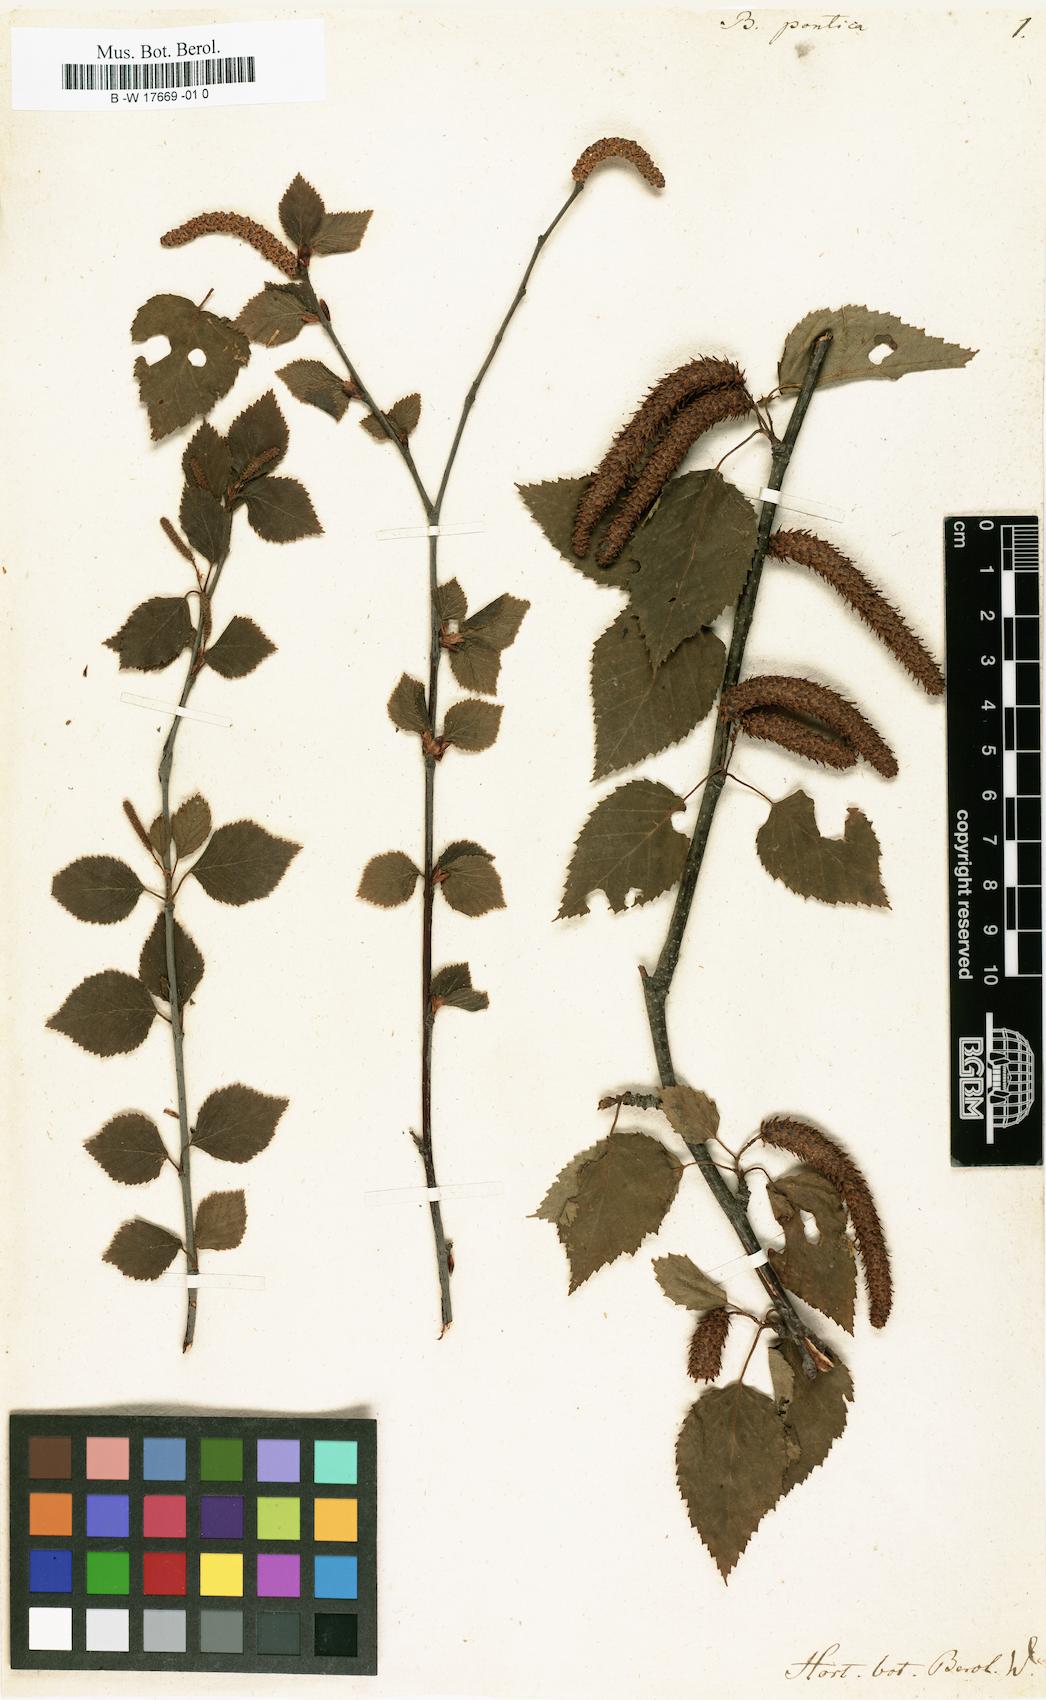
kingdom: Plantae
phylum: Tracheophyta
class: Magnoliopsida
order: Fagales
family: Betulaceae
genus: Betula
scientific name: Betula pontica
